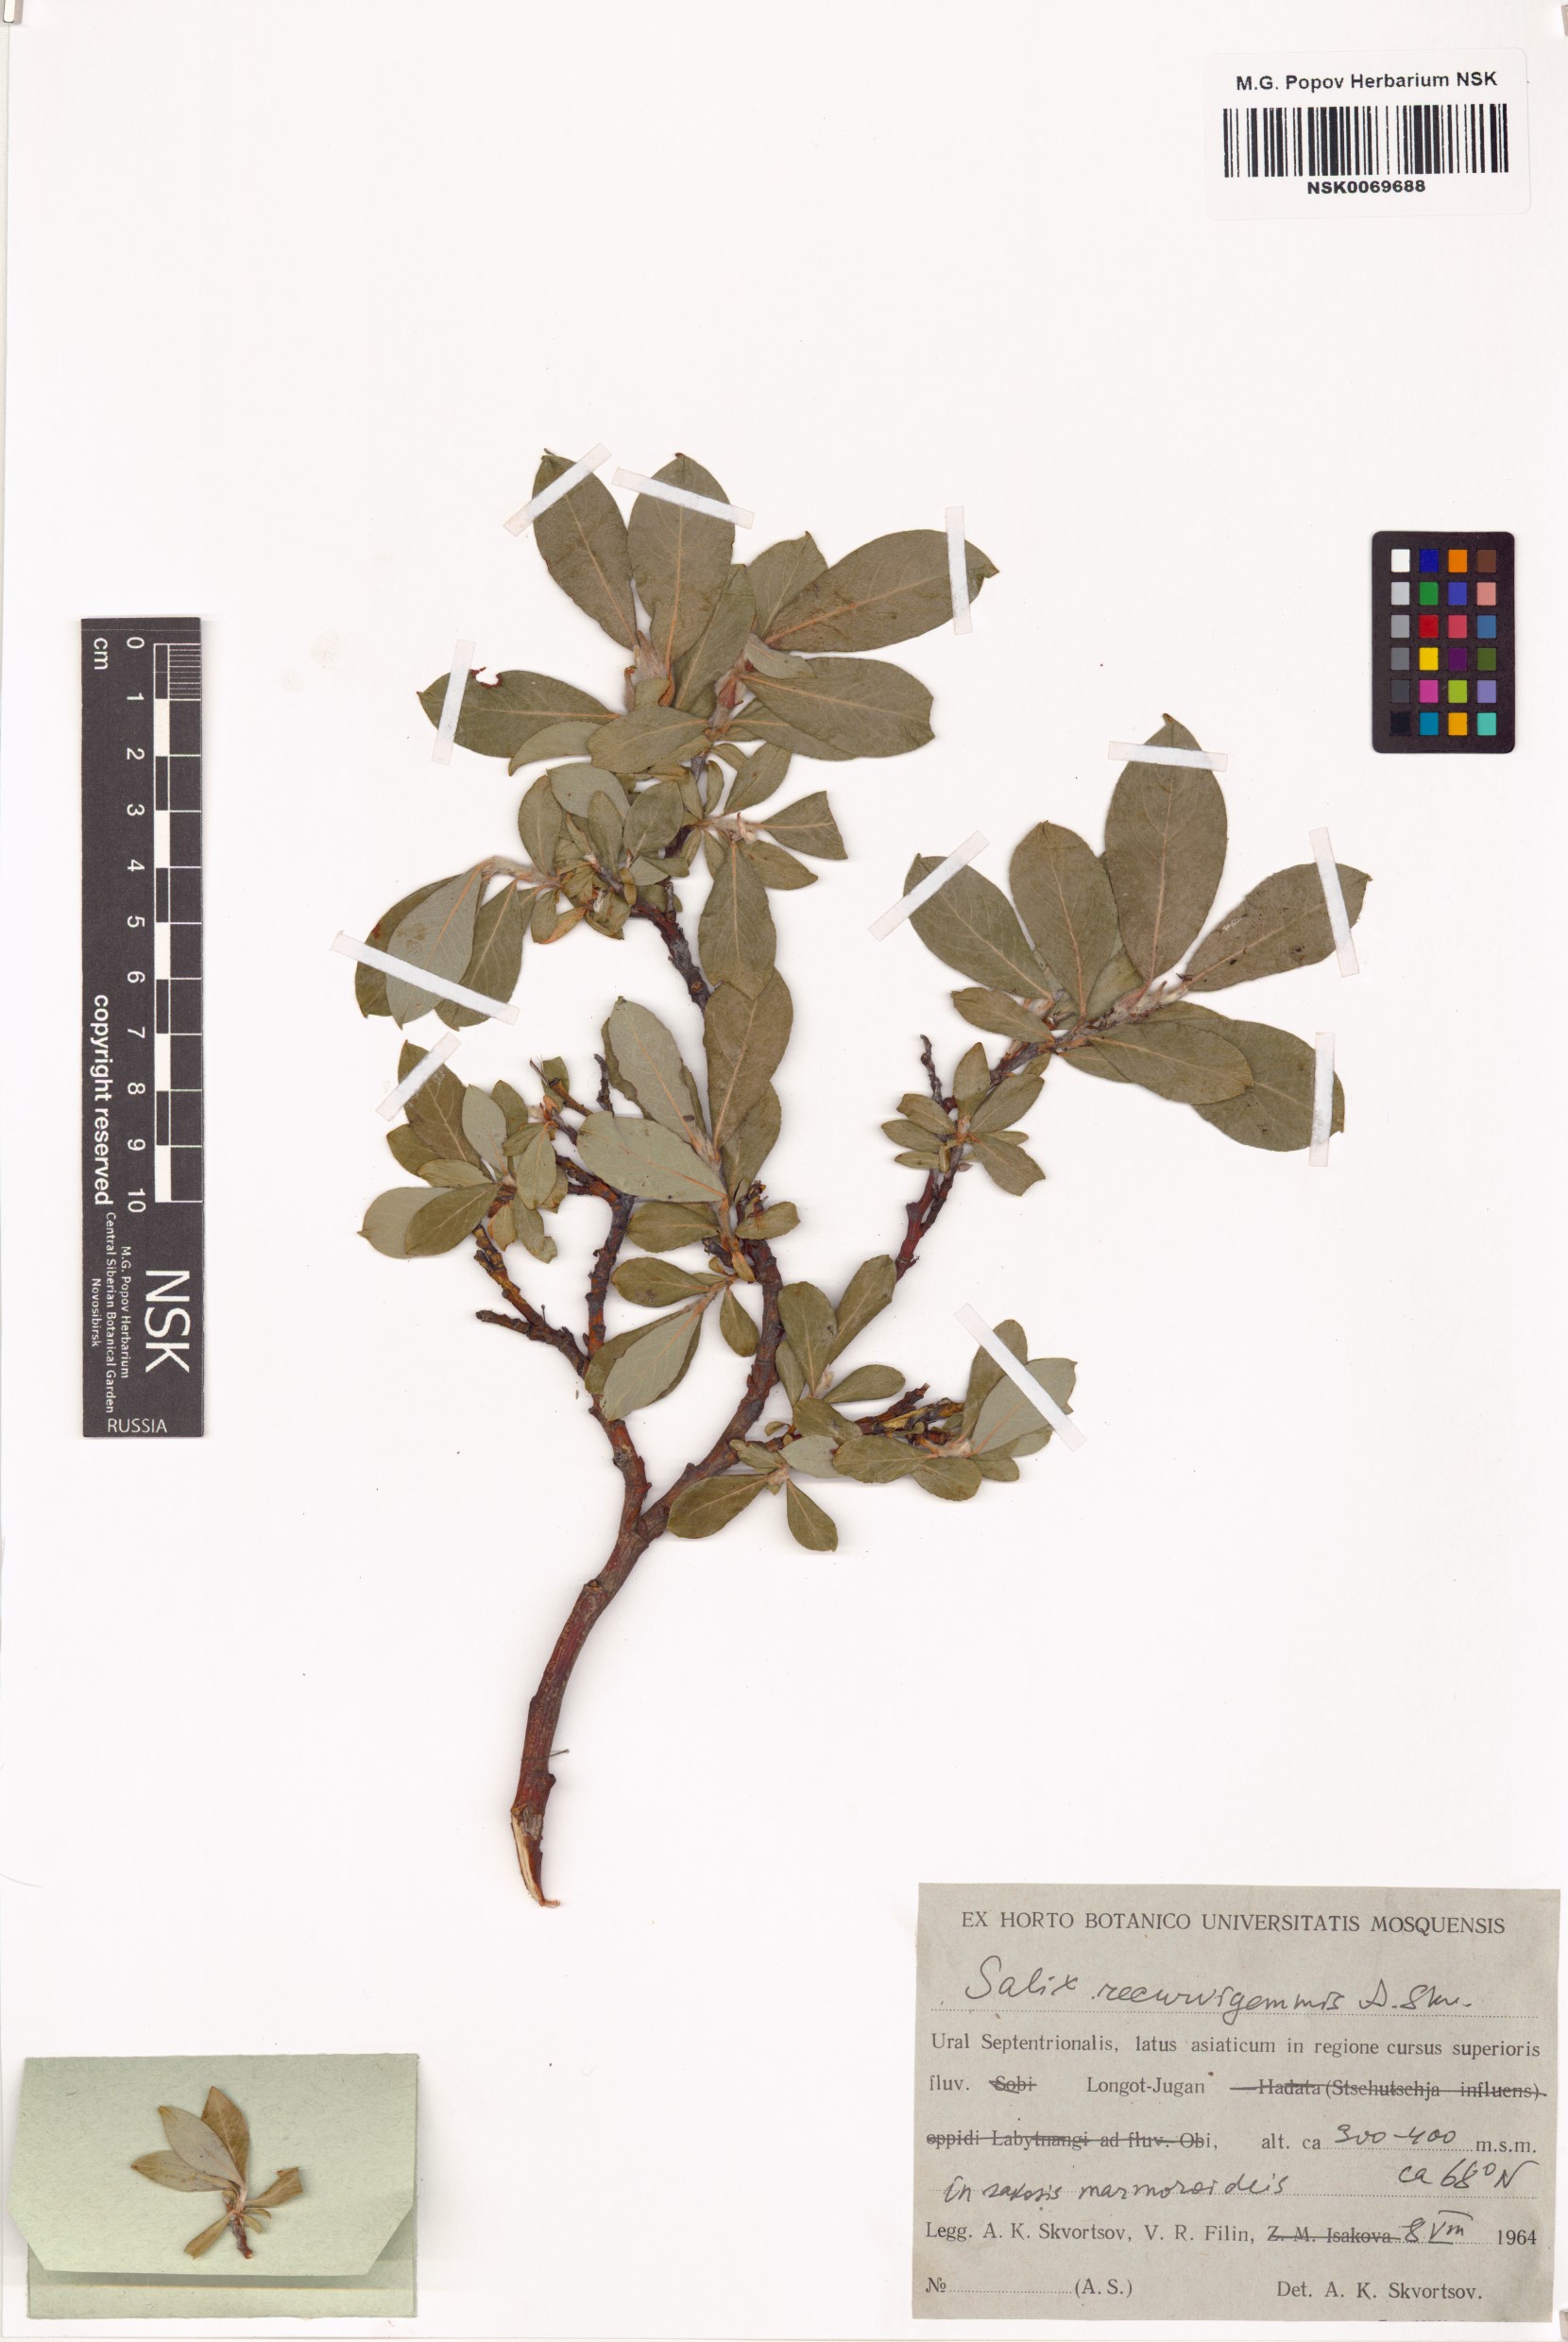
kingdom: Plantae
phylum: Tracheophyta
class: Magnoliopsida
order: Malpighiales
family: Salicaceae
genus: Salix
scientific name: Salix recurvigemmata
